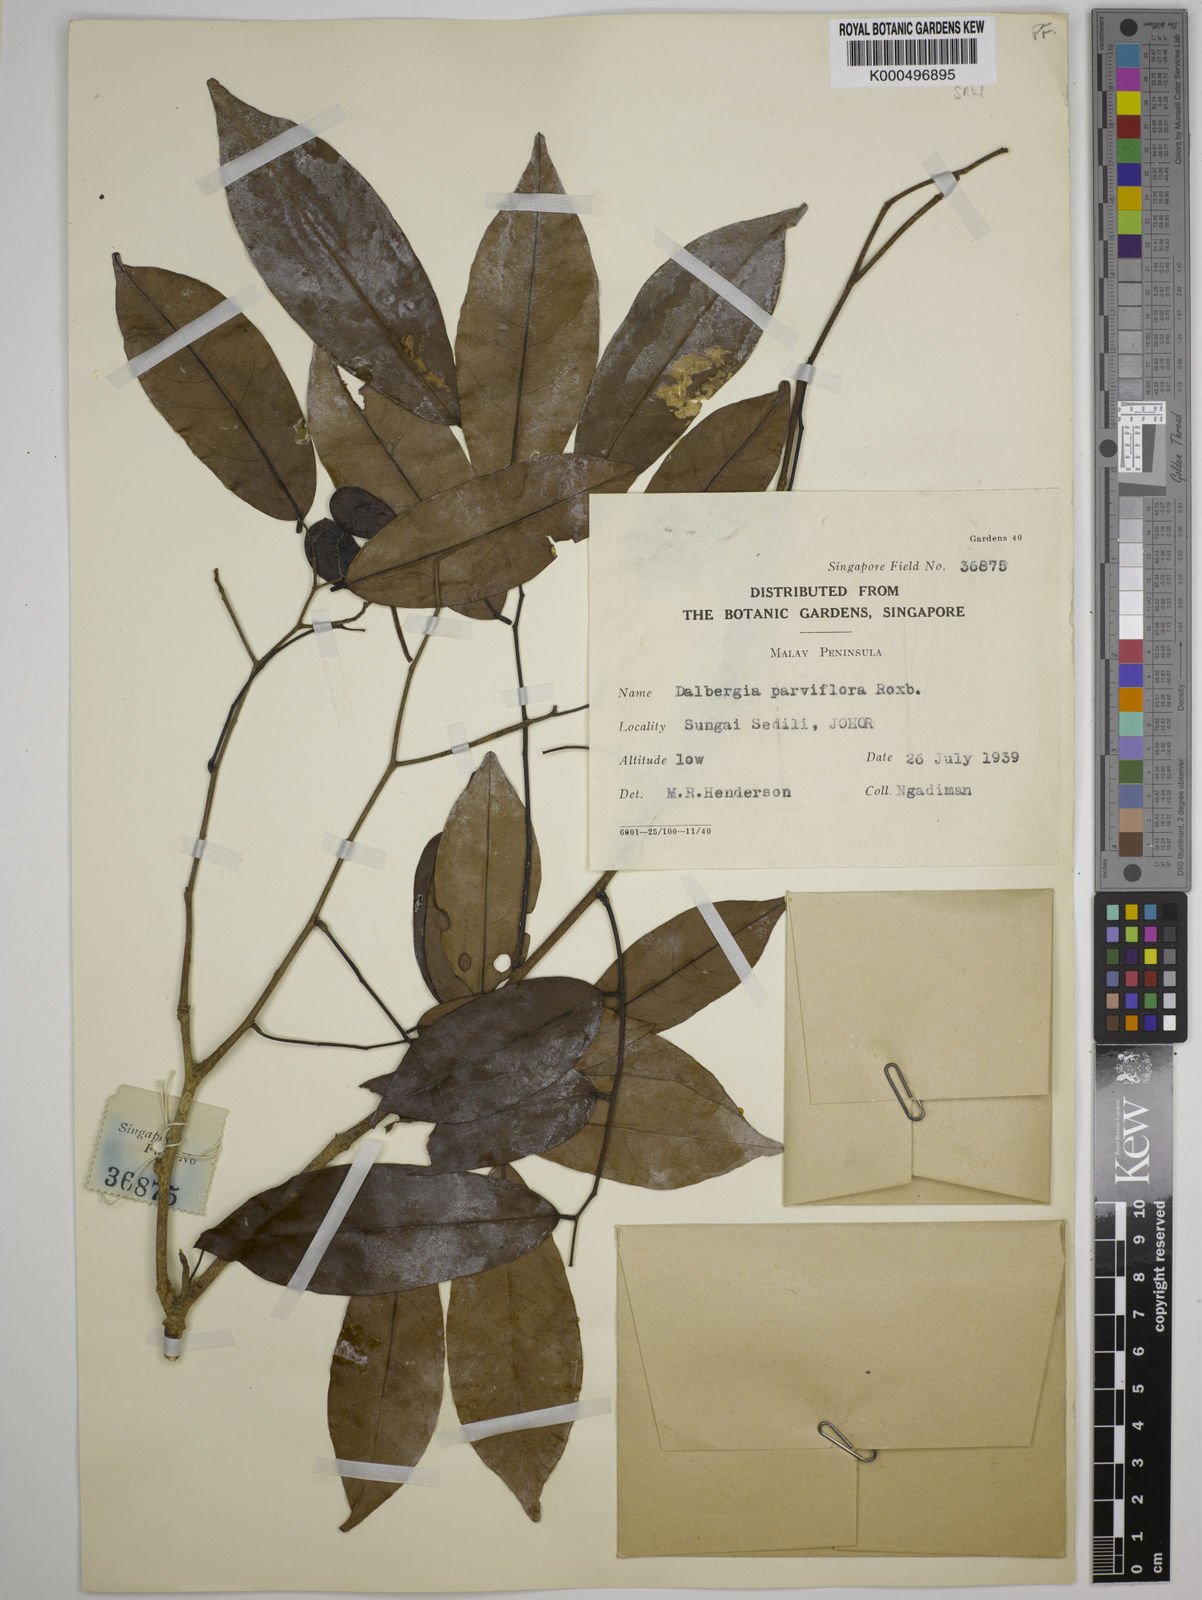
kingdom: Plantae
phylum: Tracheophyta
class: Magnoliopsida
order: Fabales
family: Fabaceae
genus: Dalbergia
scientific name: Dalbergia parviflora
